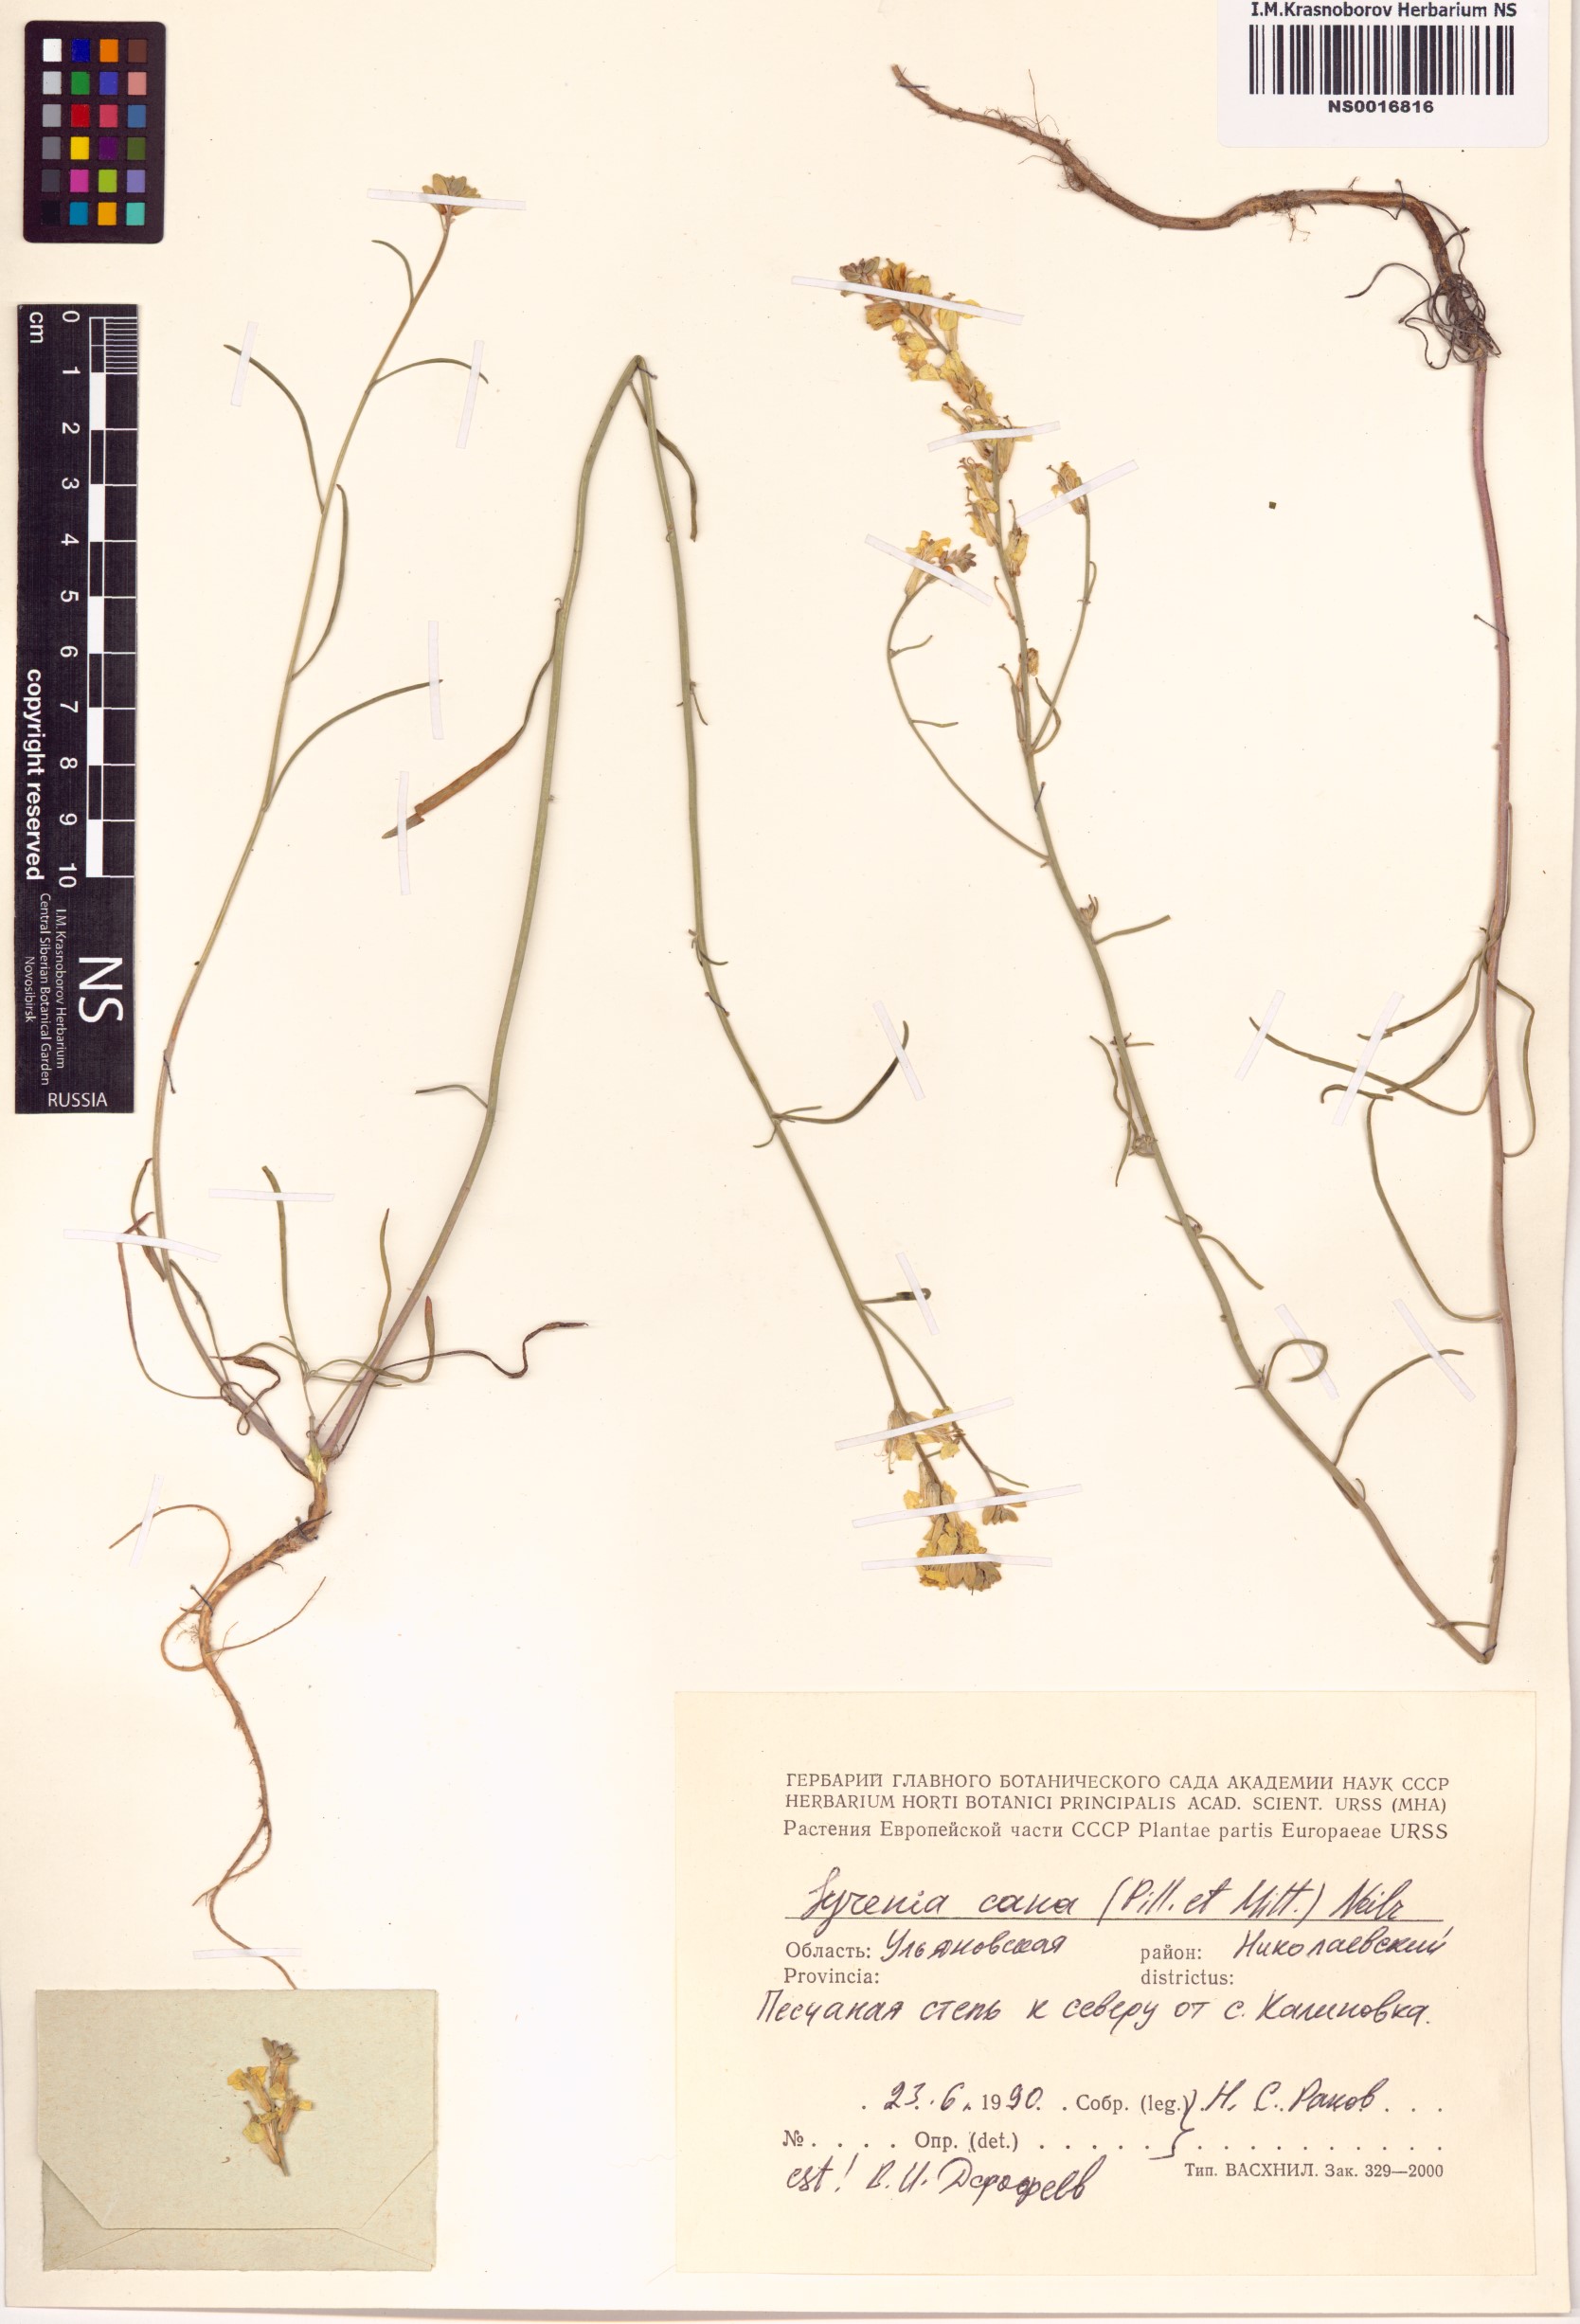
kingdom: Plantae
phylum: Tracheophyta
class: Magnoliopsida
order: Brassicales
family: Brassicaceae
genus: Erysimum
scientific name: Erysimum canum
